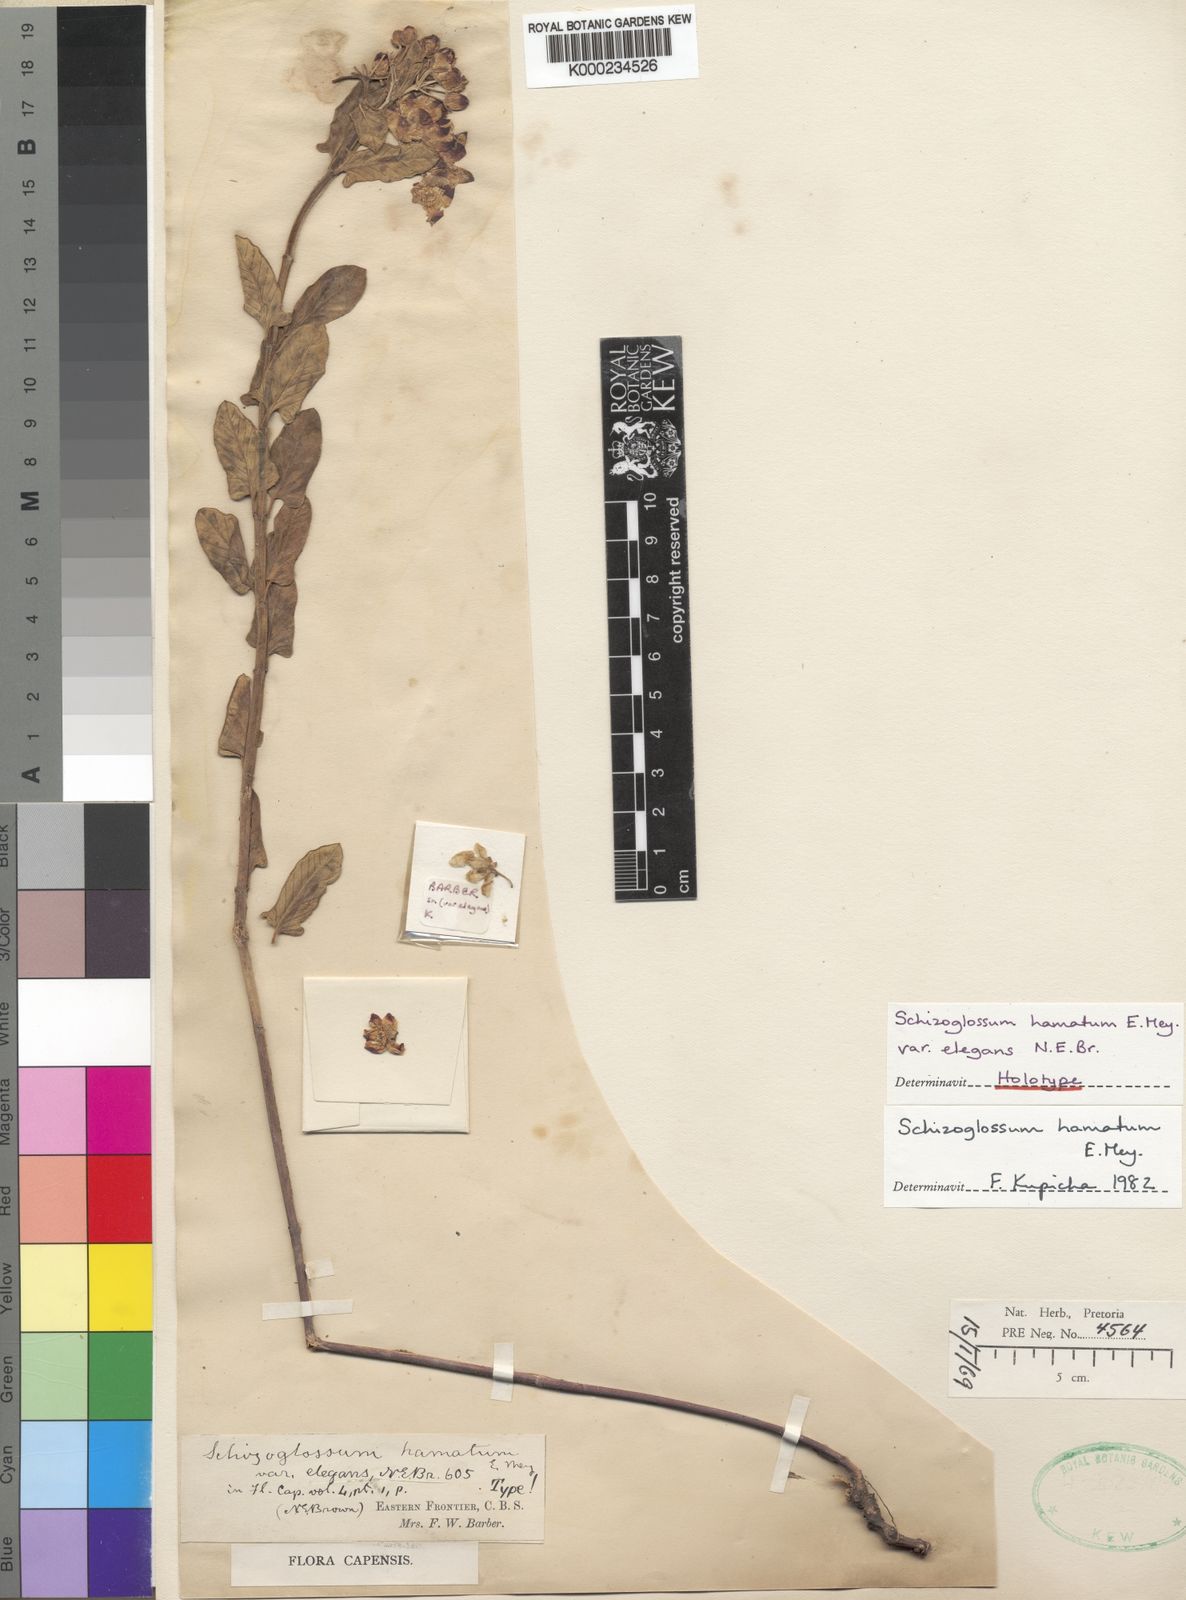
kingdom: Plantae
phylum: Tracheophyta
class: Magnoliopsida
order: Gentianales
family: Apocynaceae
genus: Schizoglossum
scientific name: Schizoglossum hamatum
